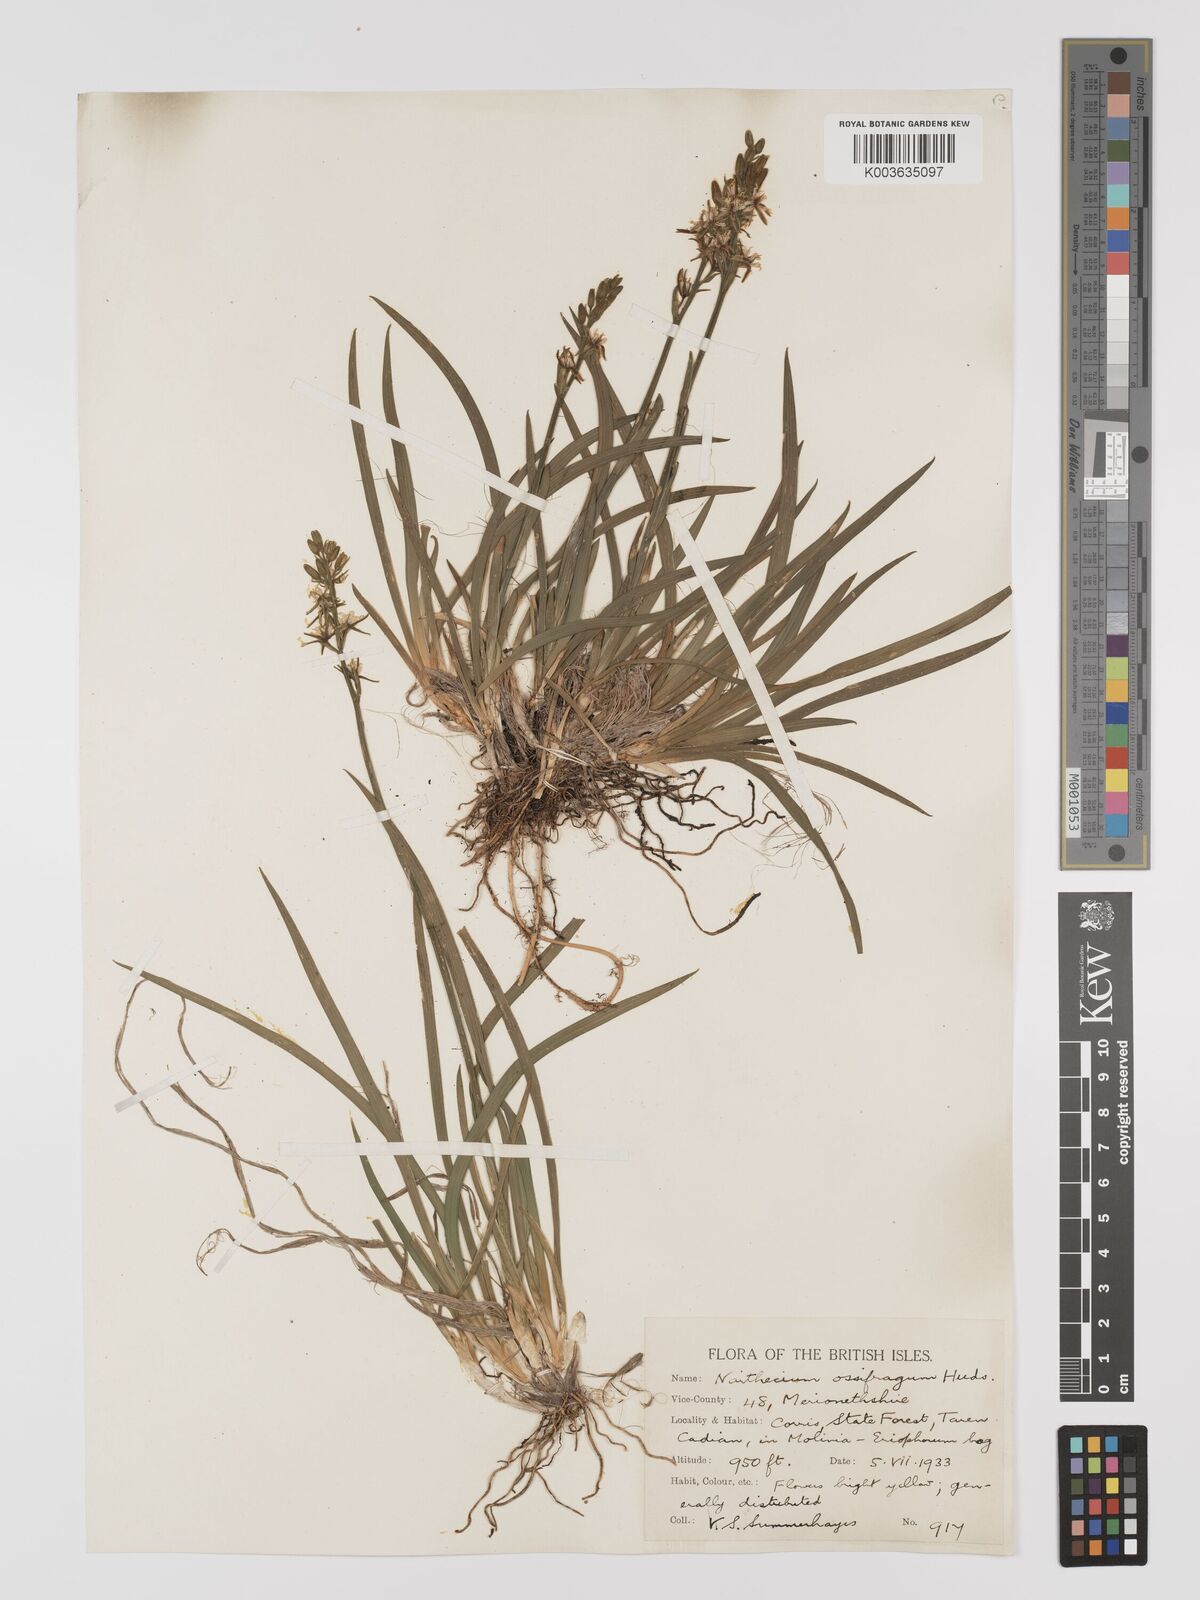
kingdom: Plantae
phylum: Tracheophyta
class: Liliopsida
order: Dioscoreales
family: Nartheciaceae
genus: Narthecium
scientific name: Narthecium
